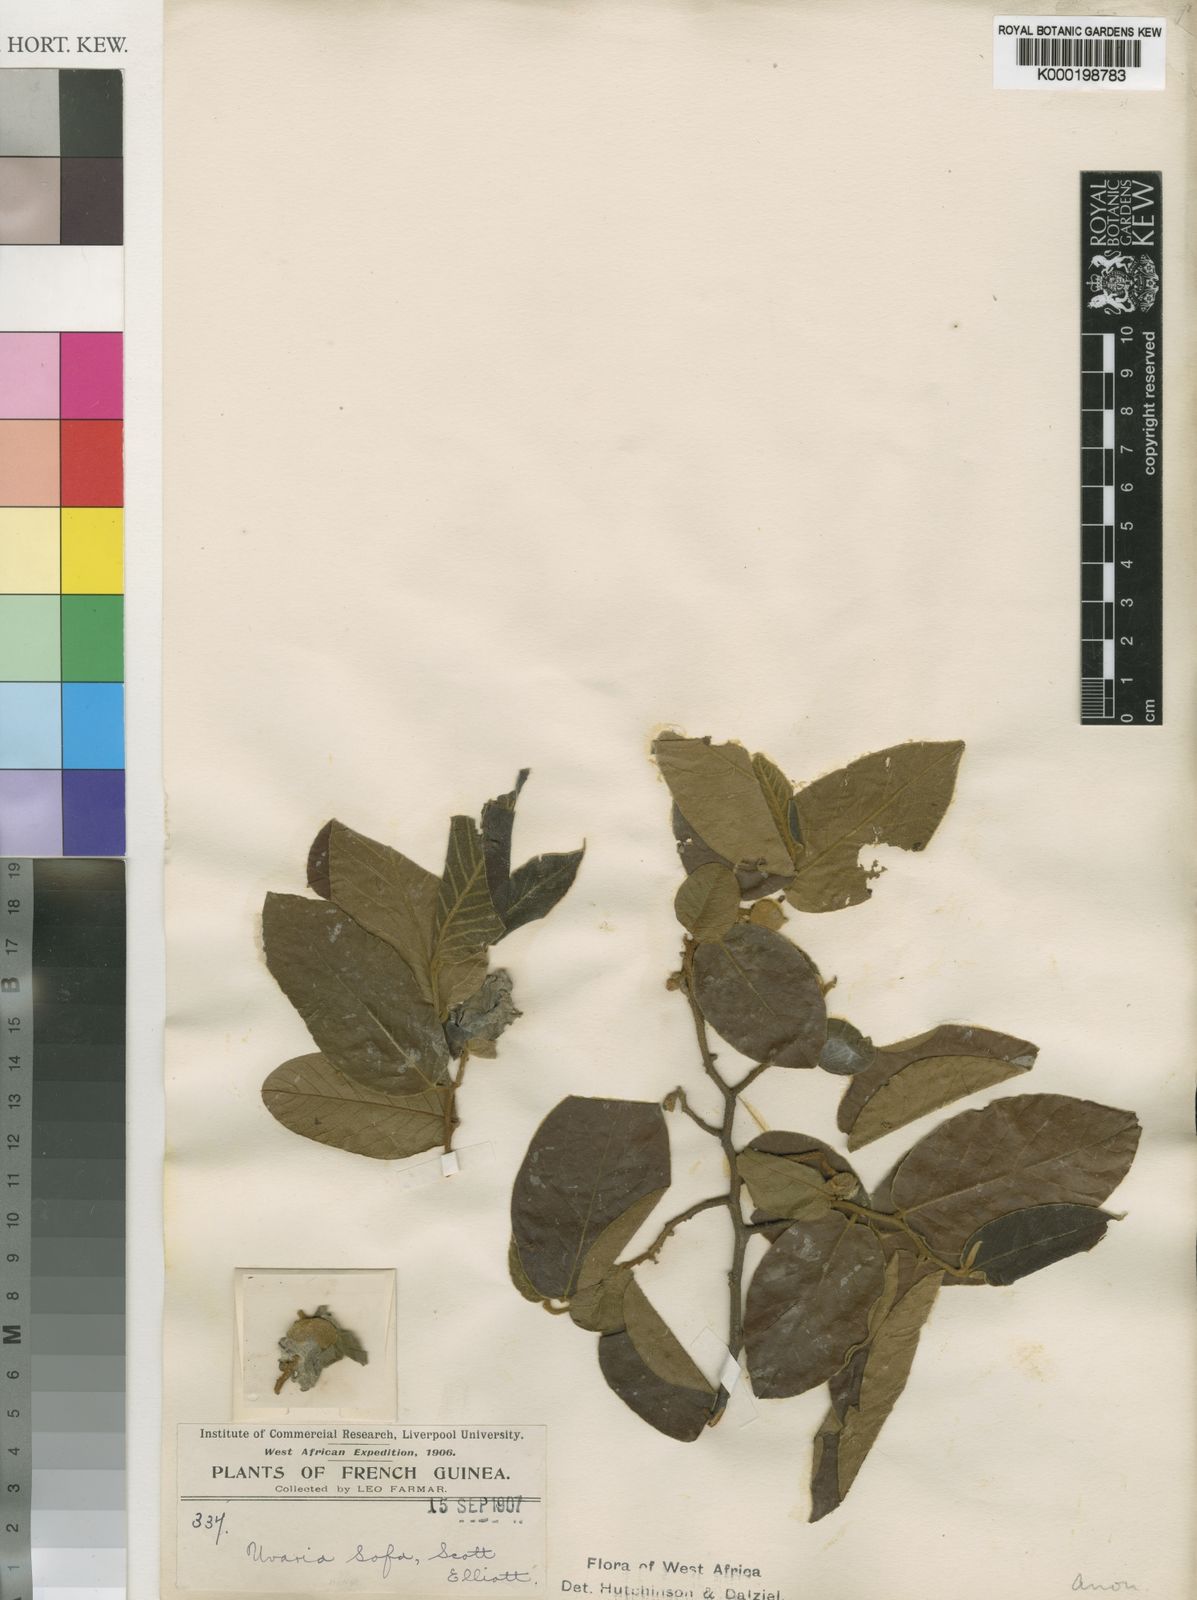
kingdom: Plantae
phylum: Tracheophyta
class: Magnoliopsida
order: Magnoliales
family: Annonaceae
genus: Uvaria
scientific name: Uvaria sofa
